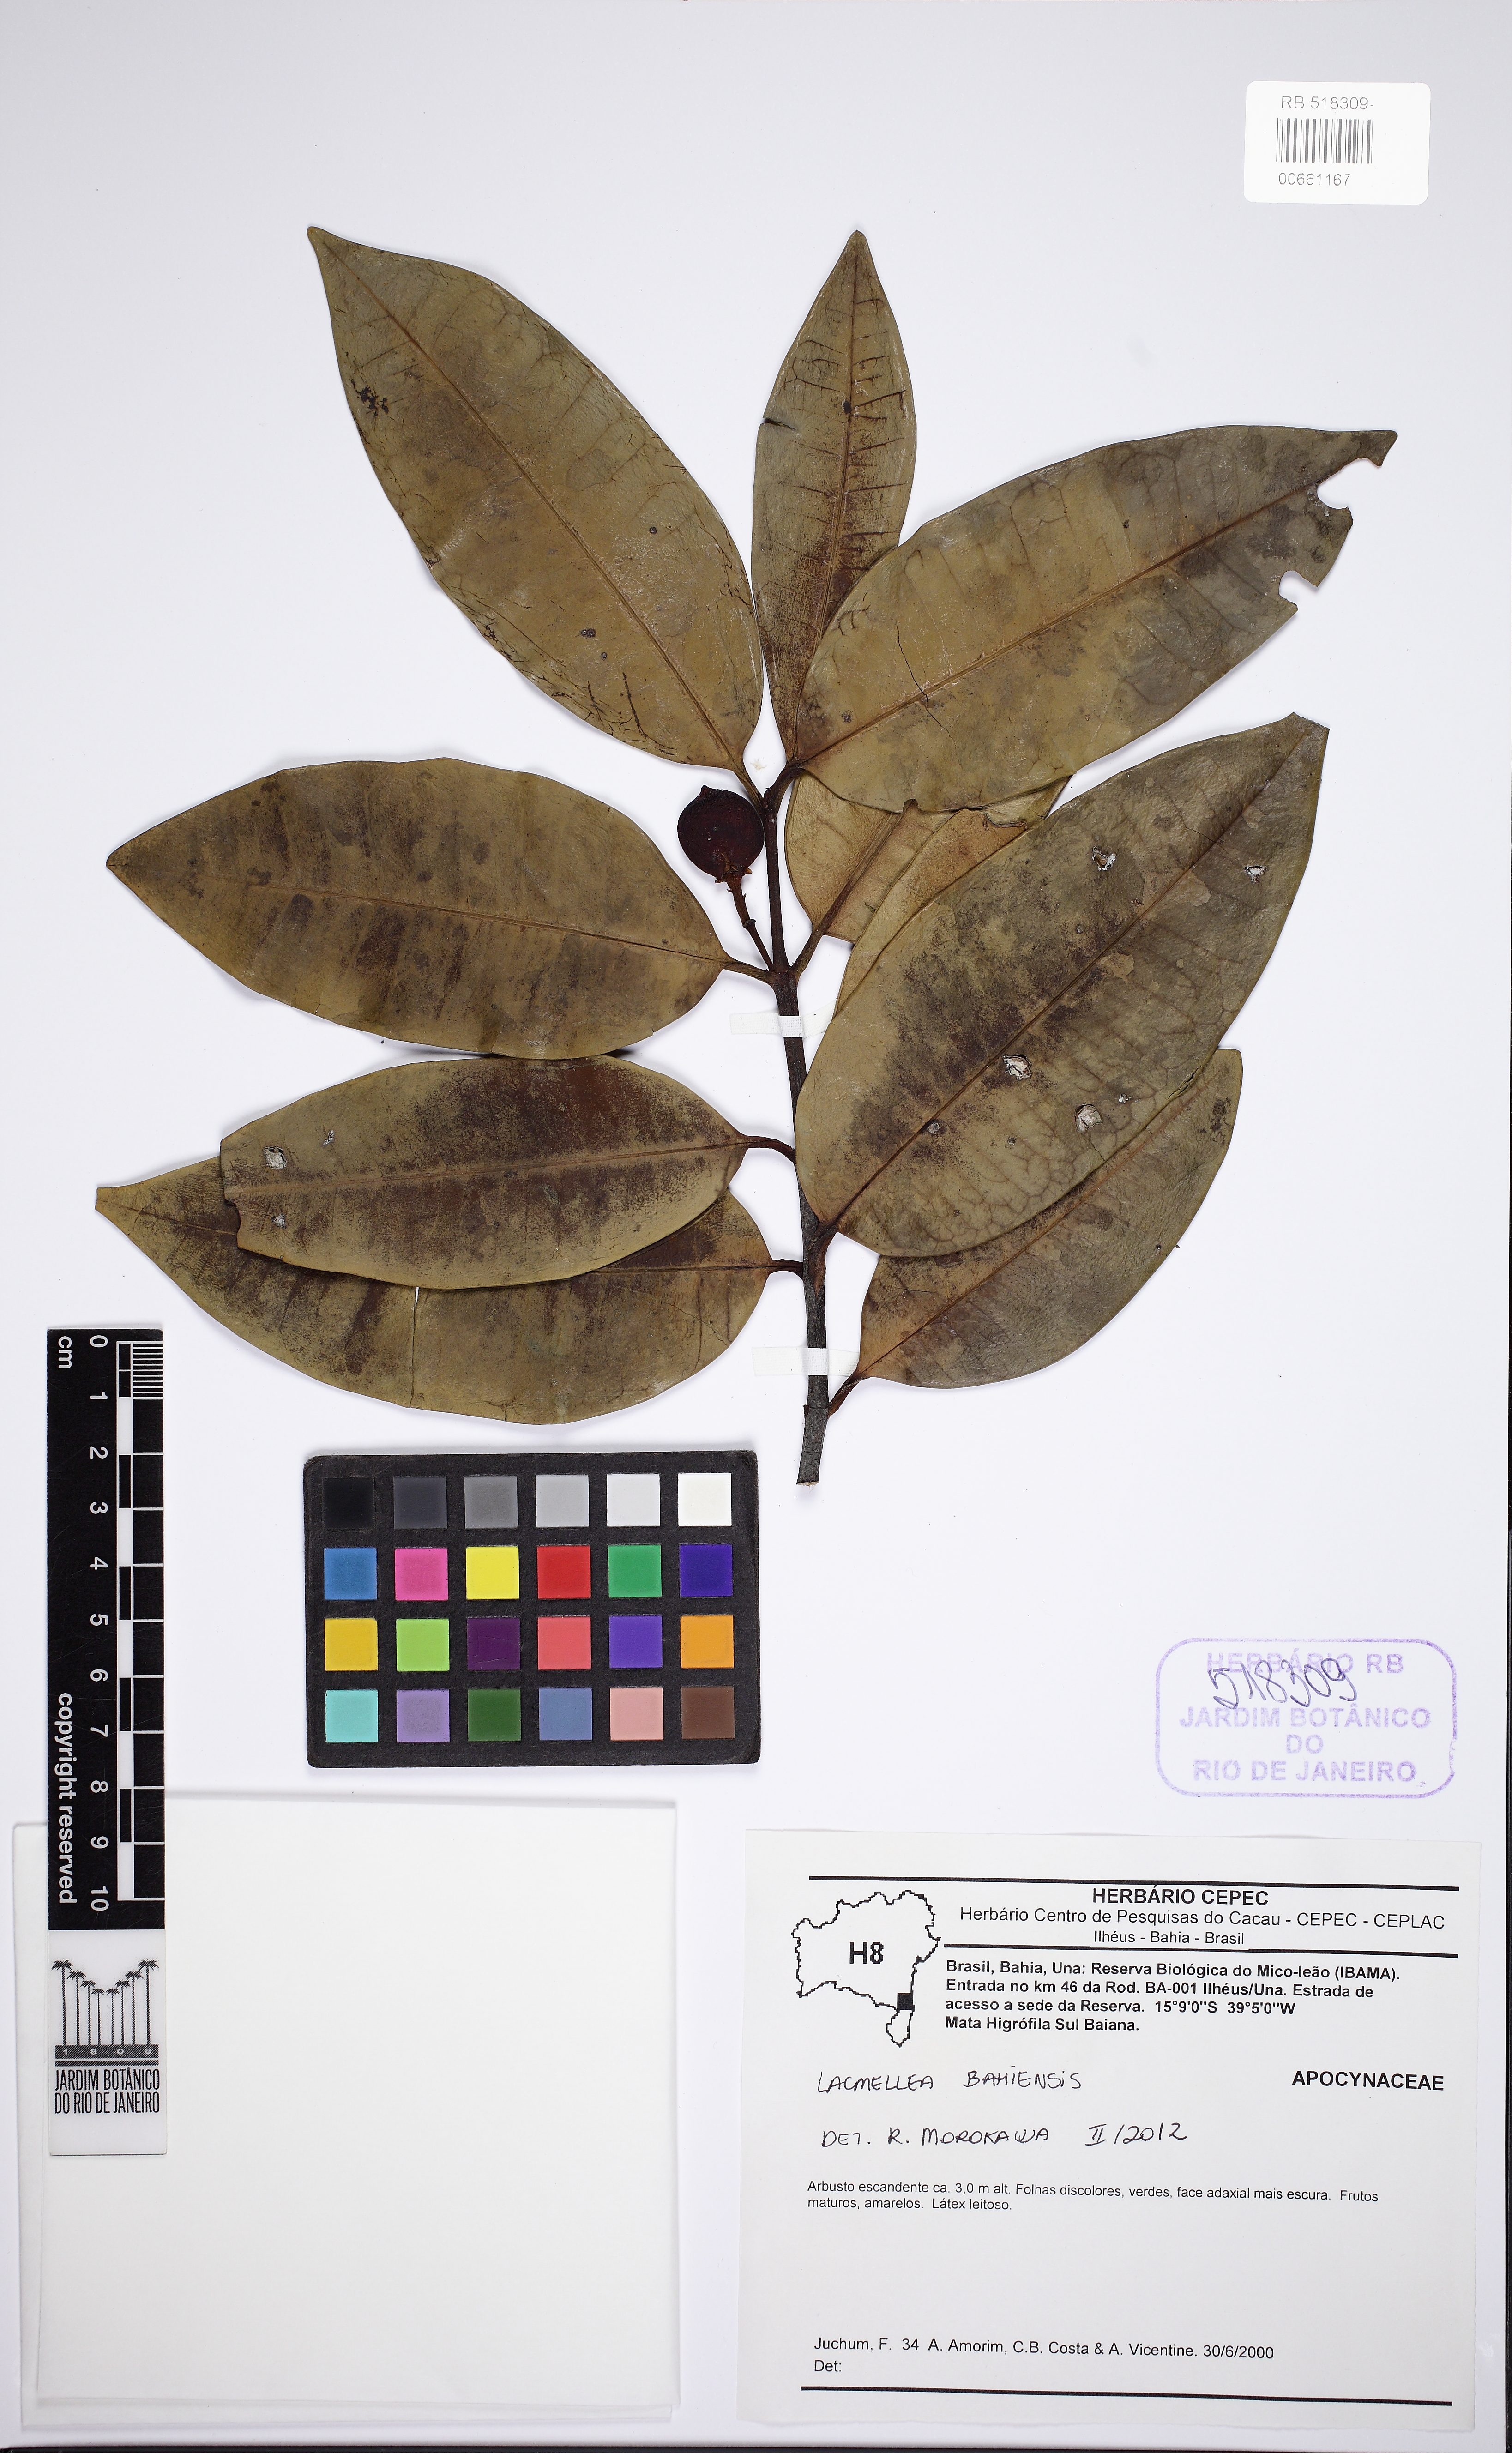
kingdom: Plantae
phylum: Tracheophyta
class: Magnoliopsida
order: Gentianales
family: Apocynaceae
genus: Lacmellea
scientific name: Lacmellea bahiensis
